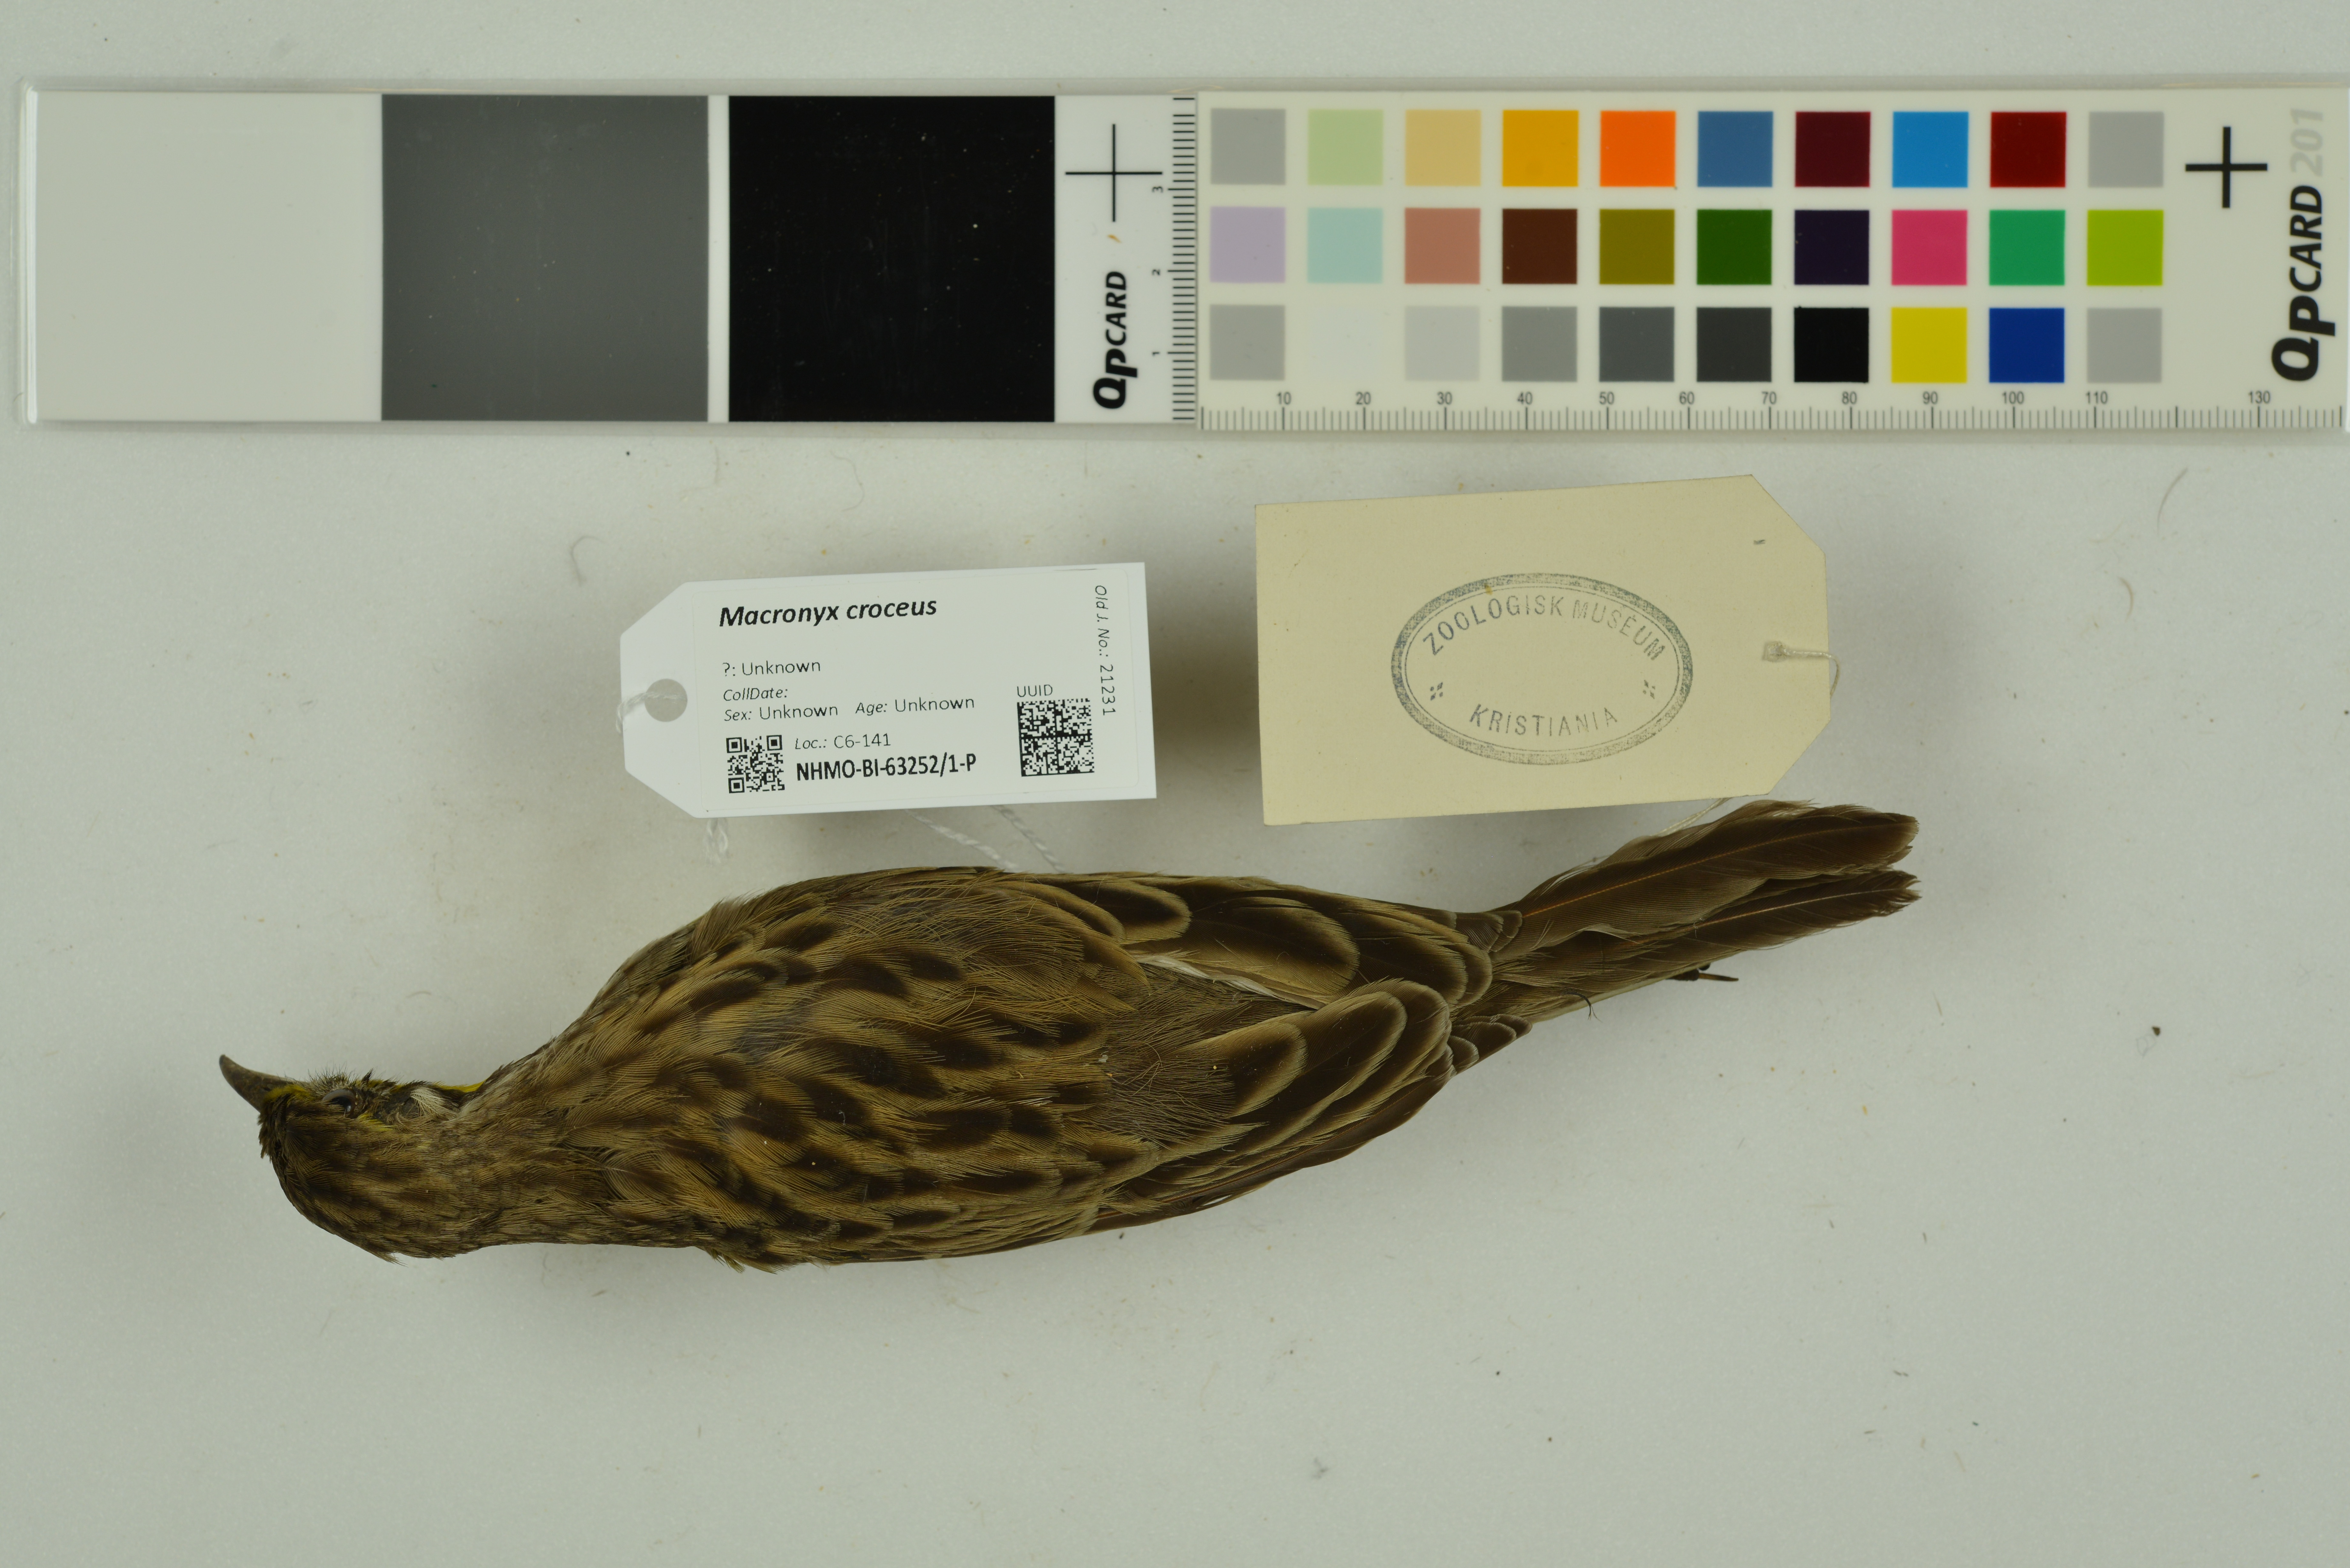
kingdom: Animalia
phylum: Chordata
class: Aves
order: Passeriformes
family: Motacillidae
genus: Macronyx
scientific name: Macronyx croceus
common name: Yellow-throated longclaw
